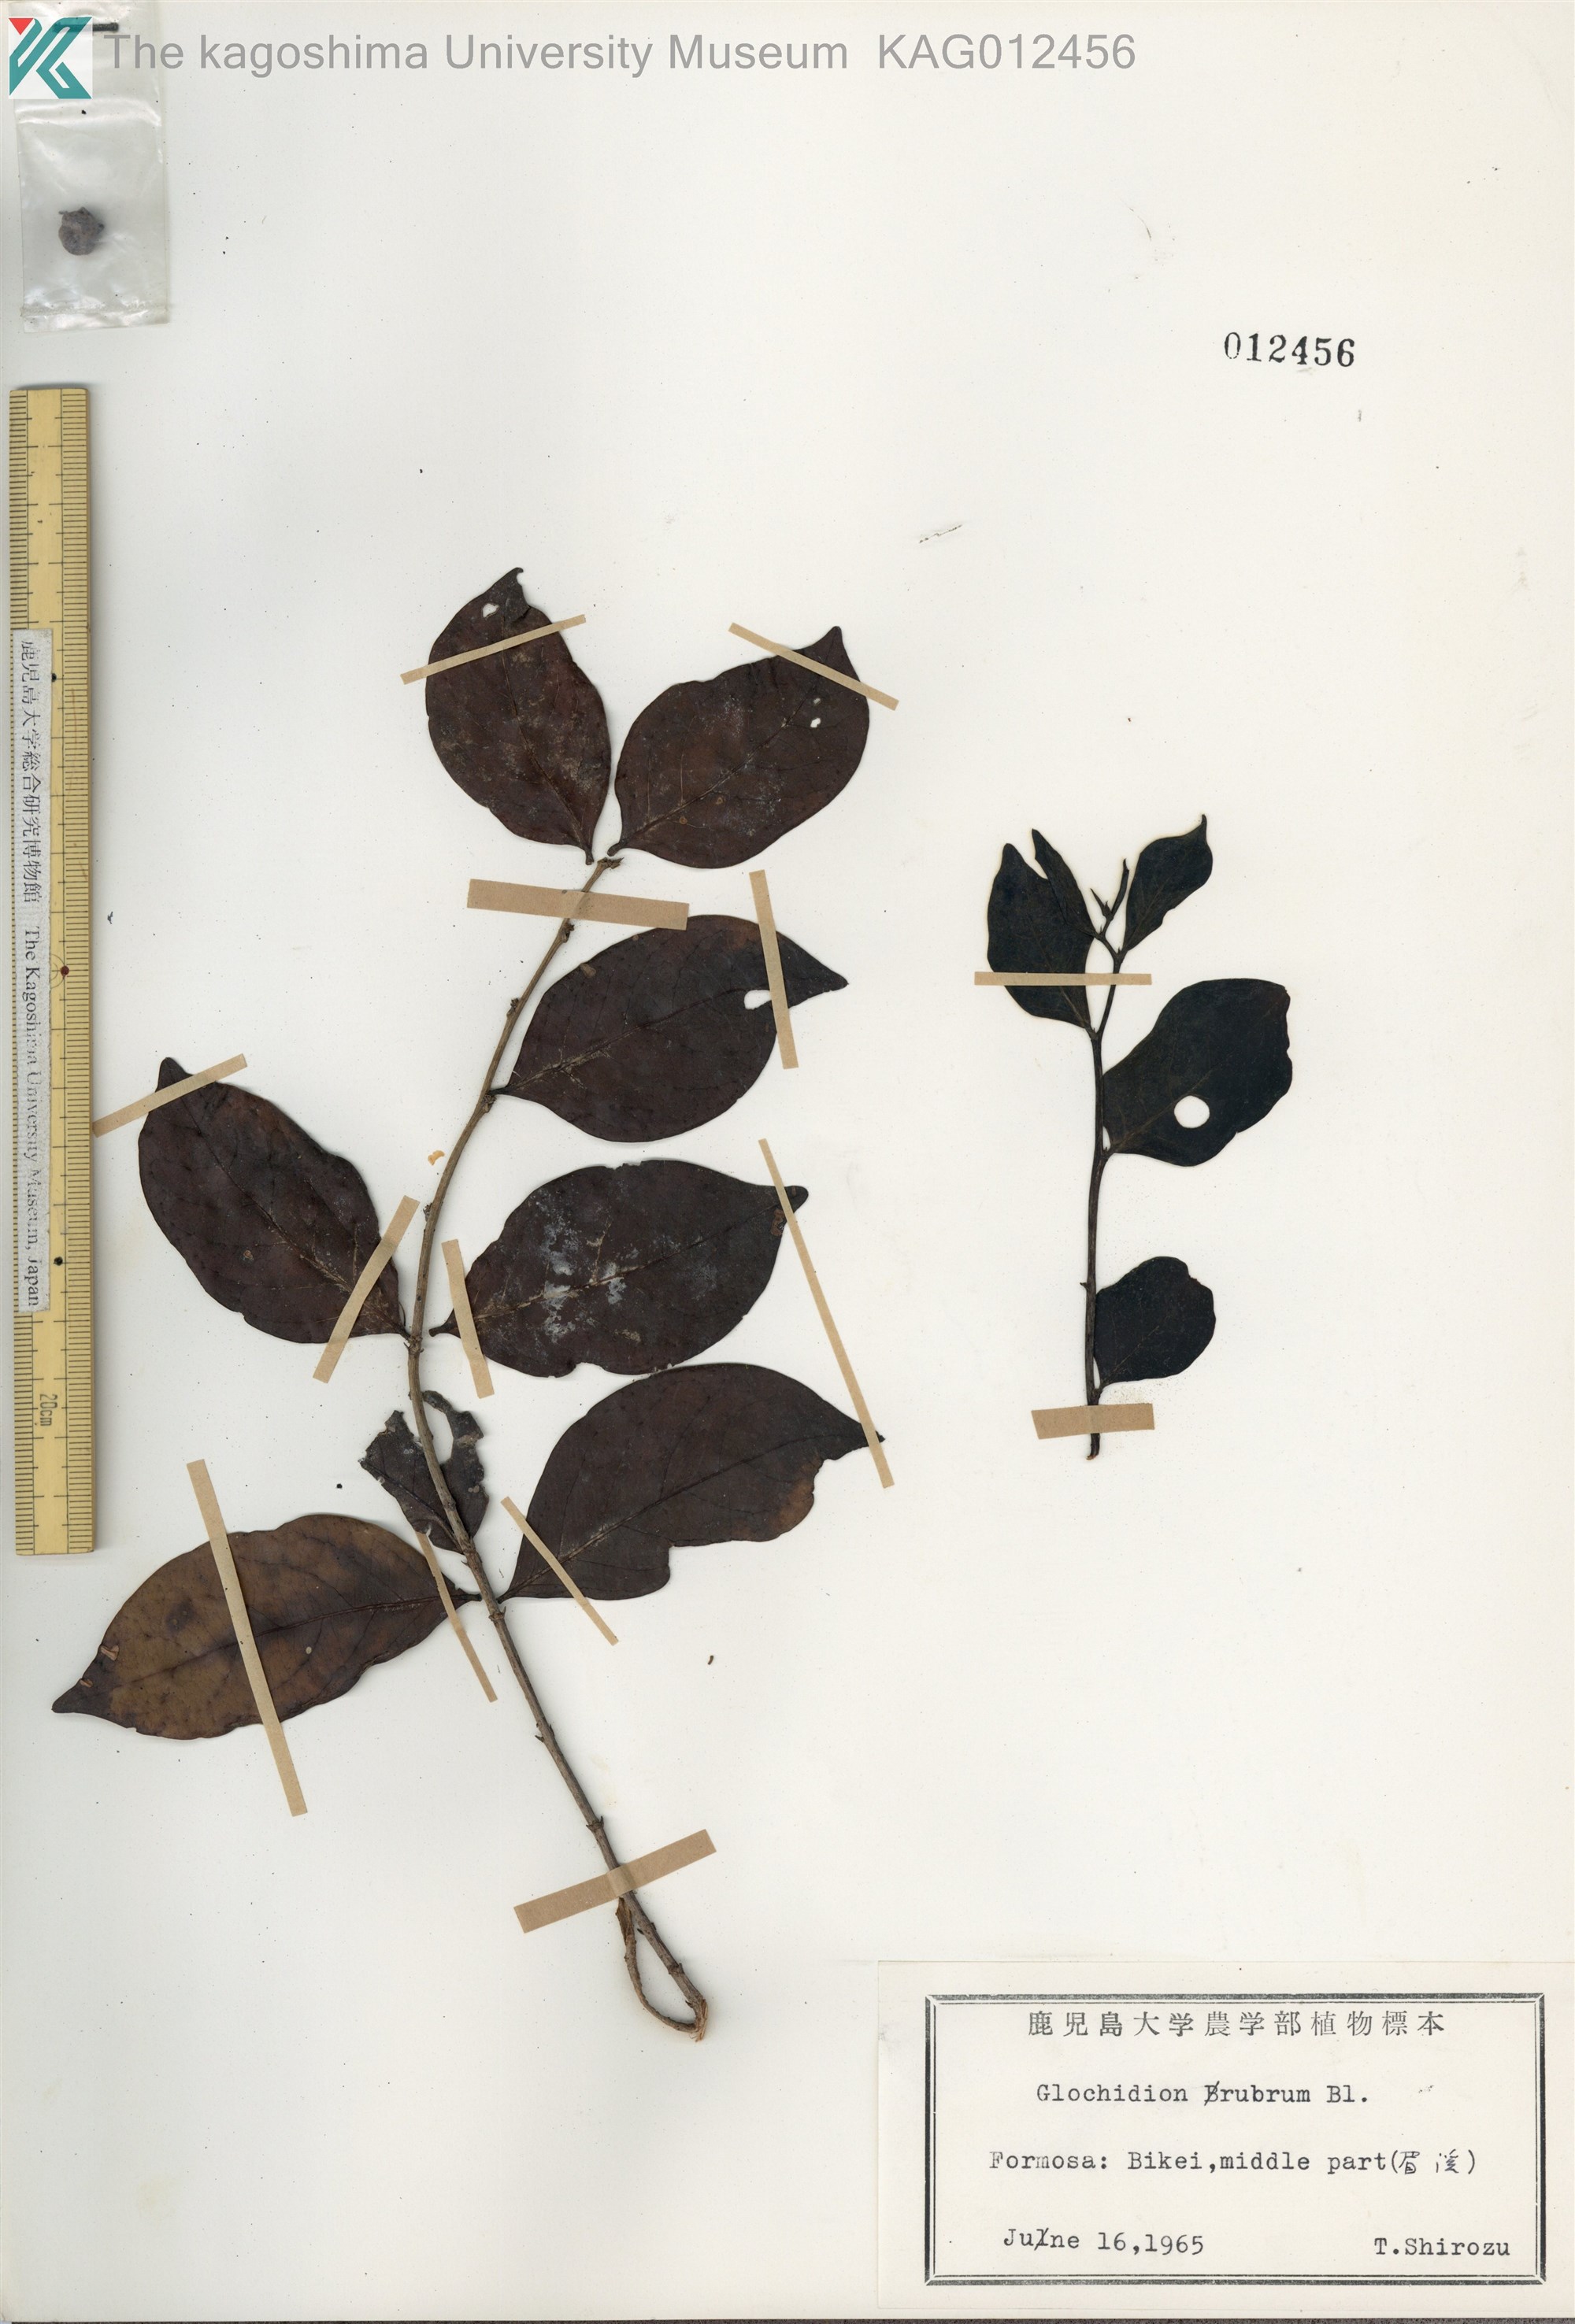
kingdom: Plantae
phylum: Tracheophyta
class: Magnoliopsida
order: Malpighiales
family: Phyllanthaceae
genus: Glochidion
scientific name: Glochidion rubrum
